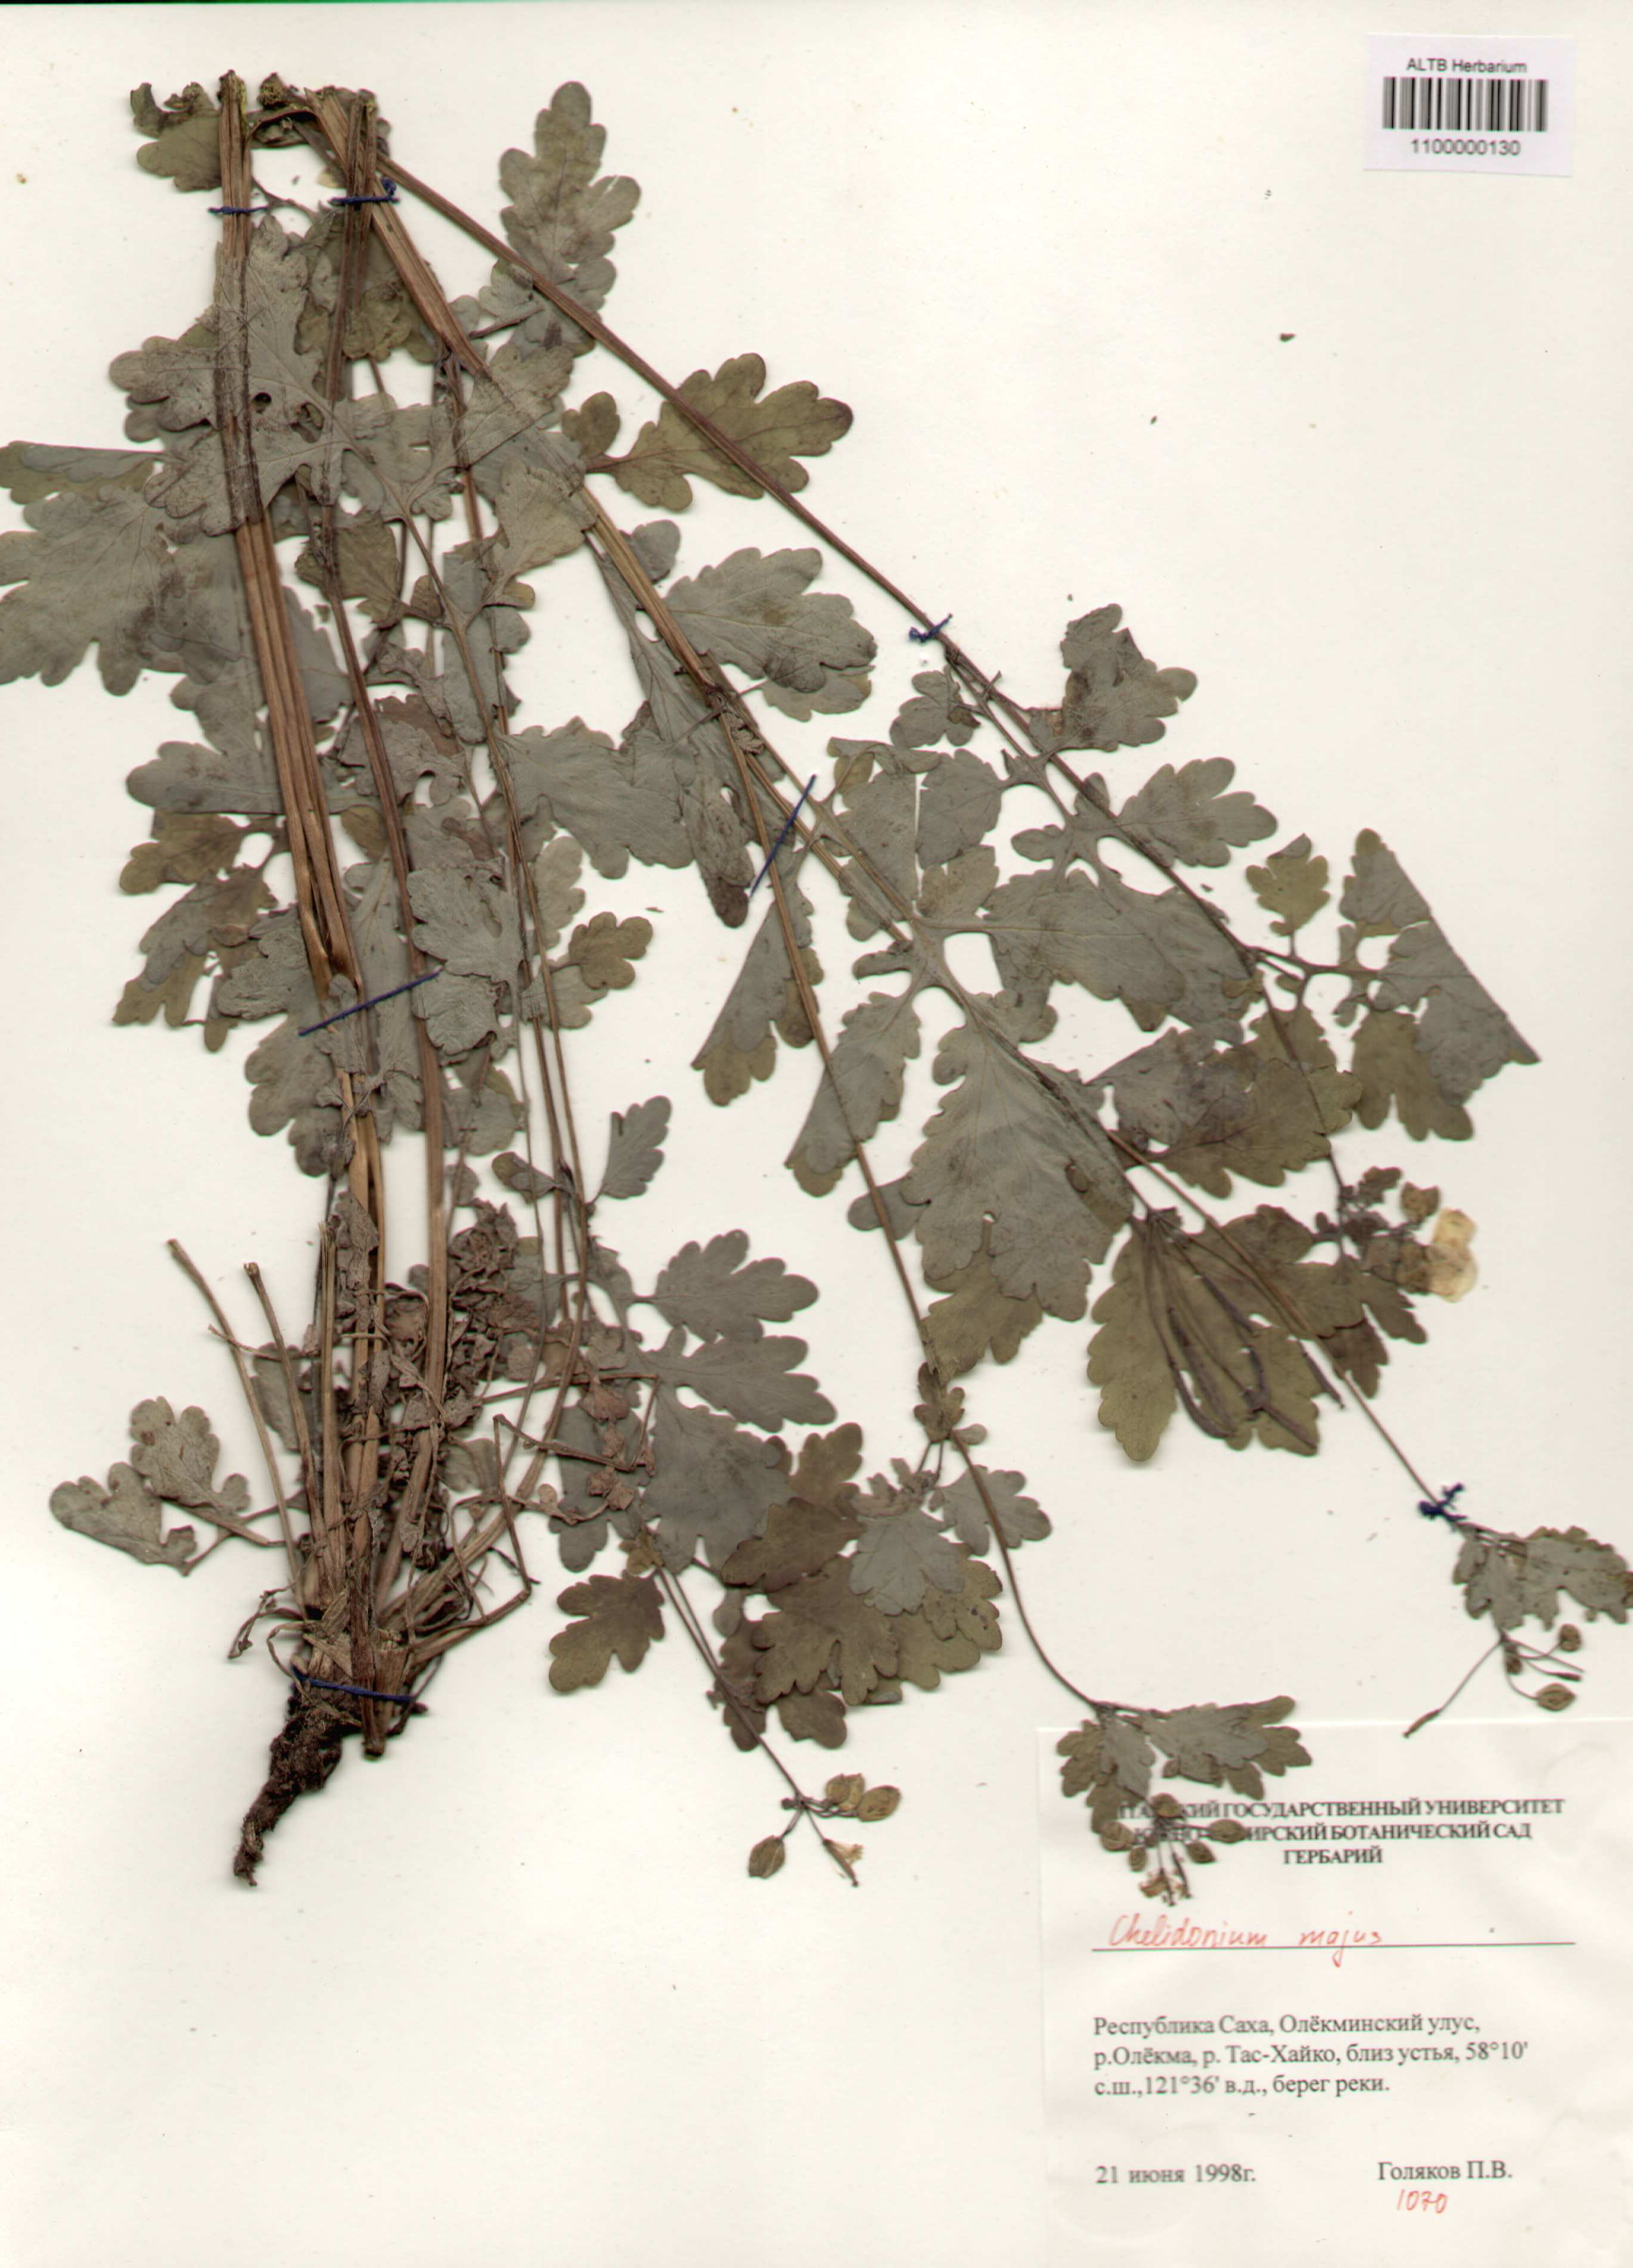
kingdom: Plantae
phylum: Tracheophyta
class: Magnoliopsida
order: Ranunculales
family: Papaveraceae
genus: Chelidonium
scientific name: Chelidonium majus
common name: Greater celandine
